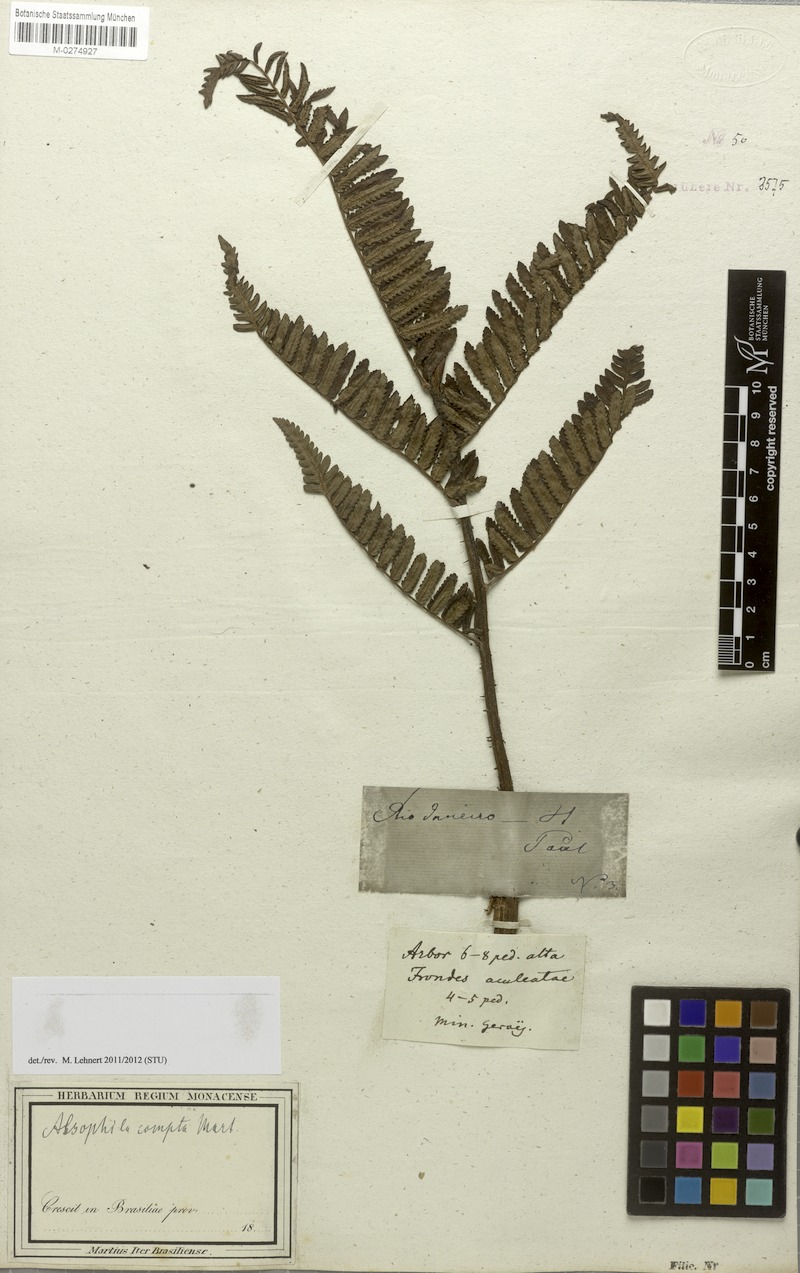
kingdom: Plantae
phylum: Tracheophyta
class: Polypodiopsida
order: Cyatheales
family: Cyatheaceae
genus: Cyathea
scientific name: Cyathea atrovirens
